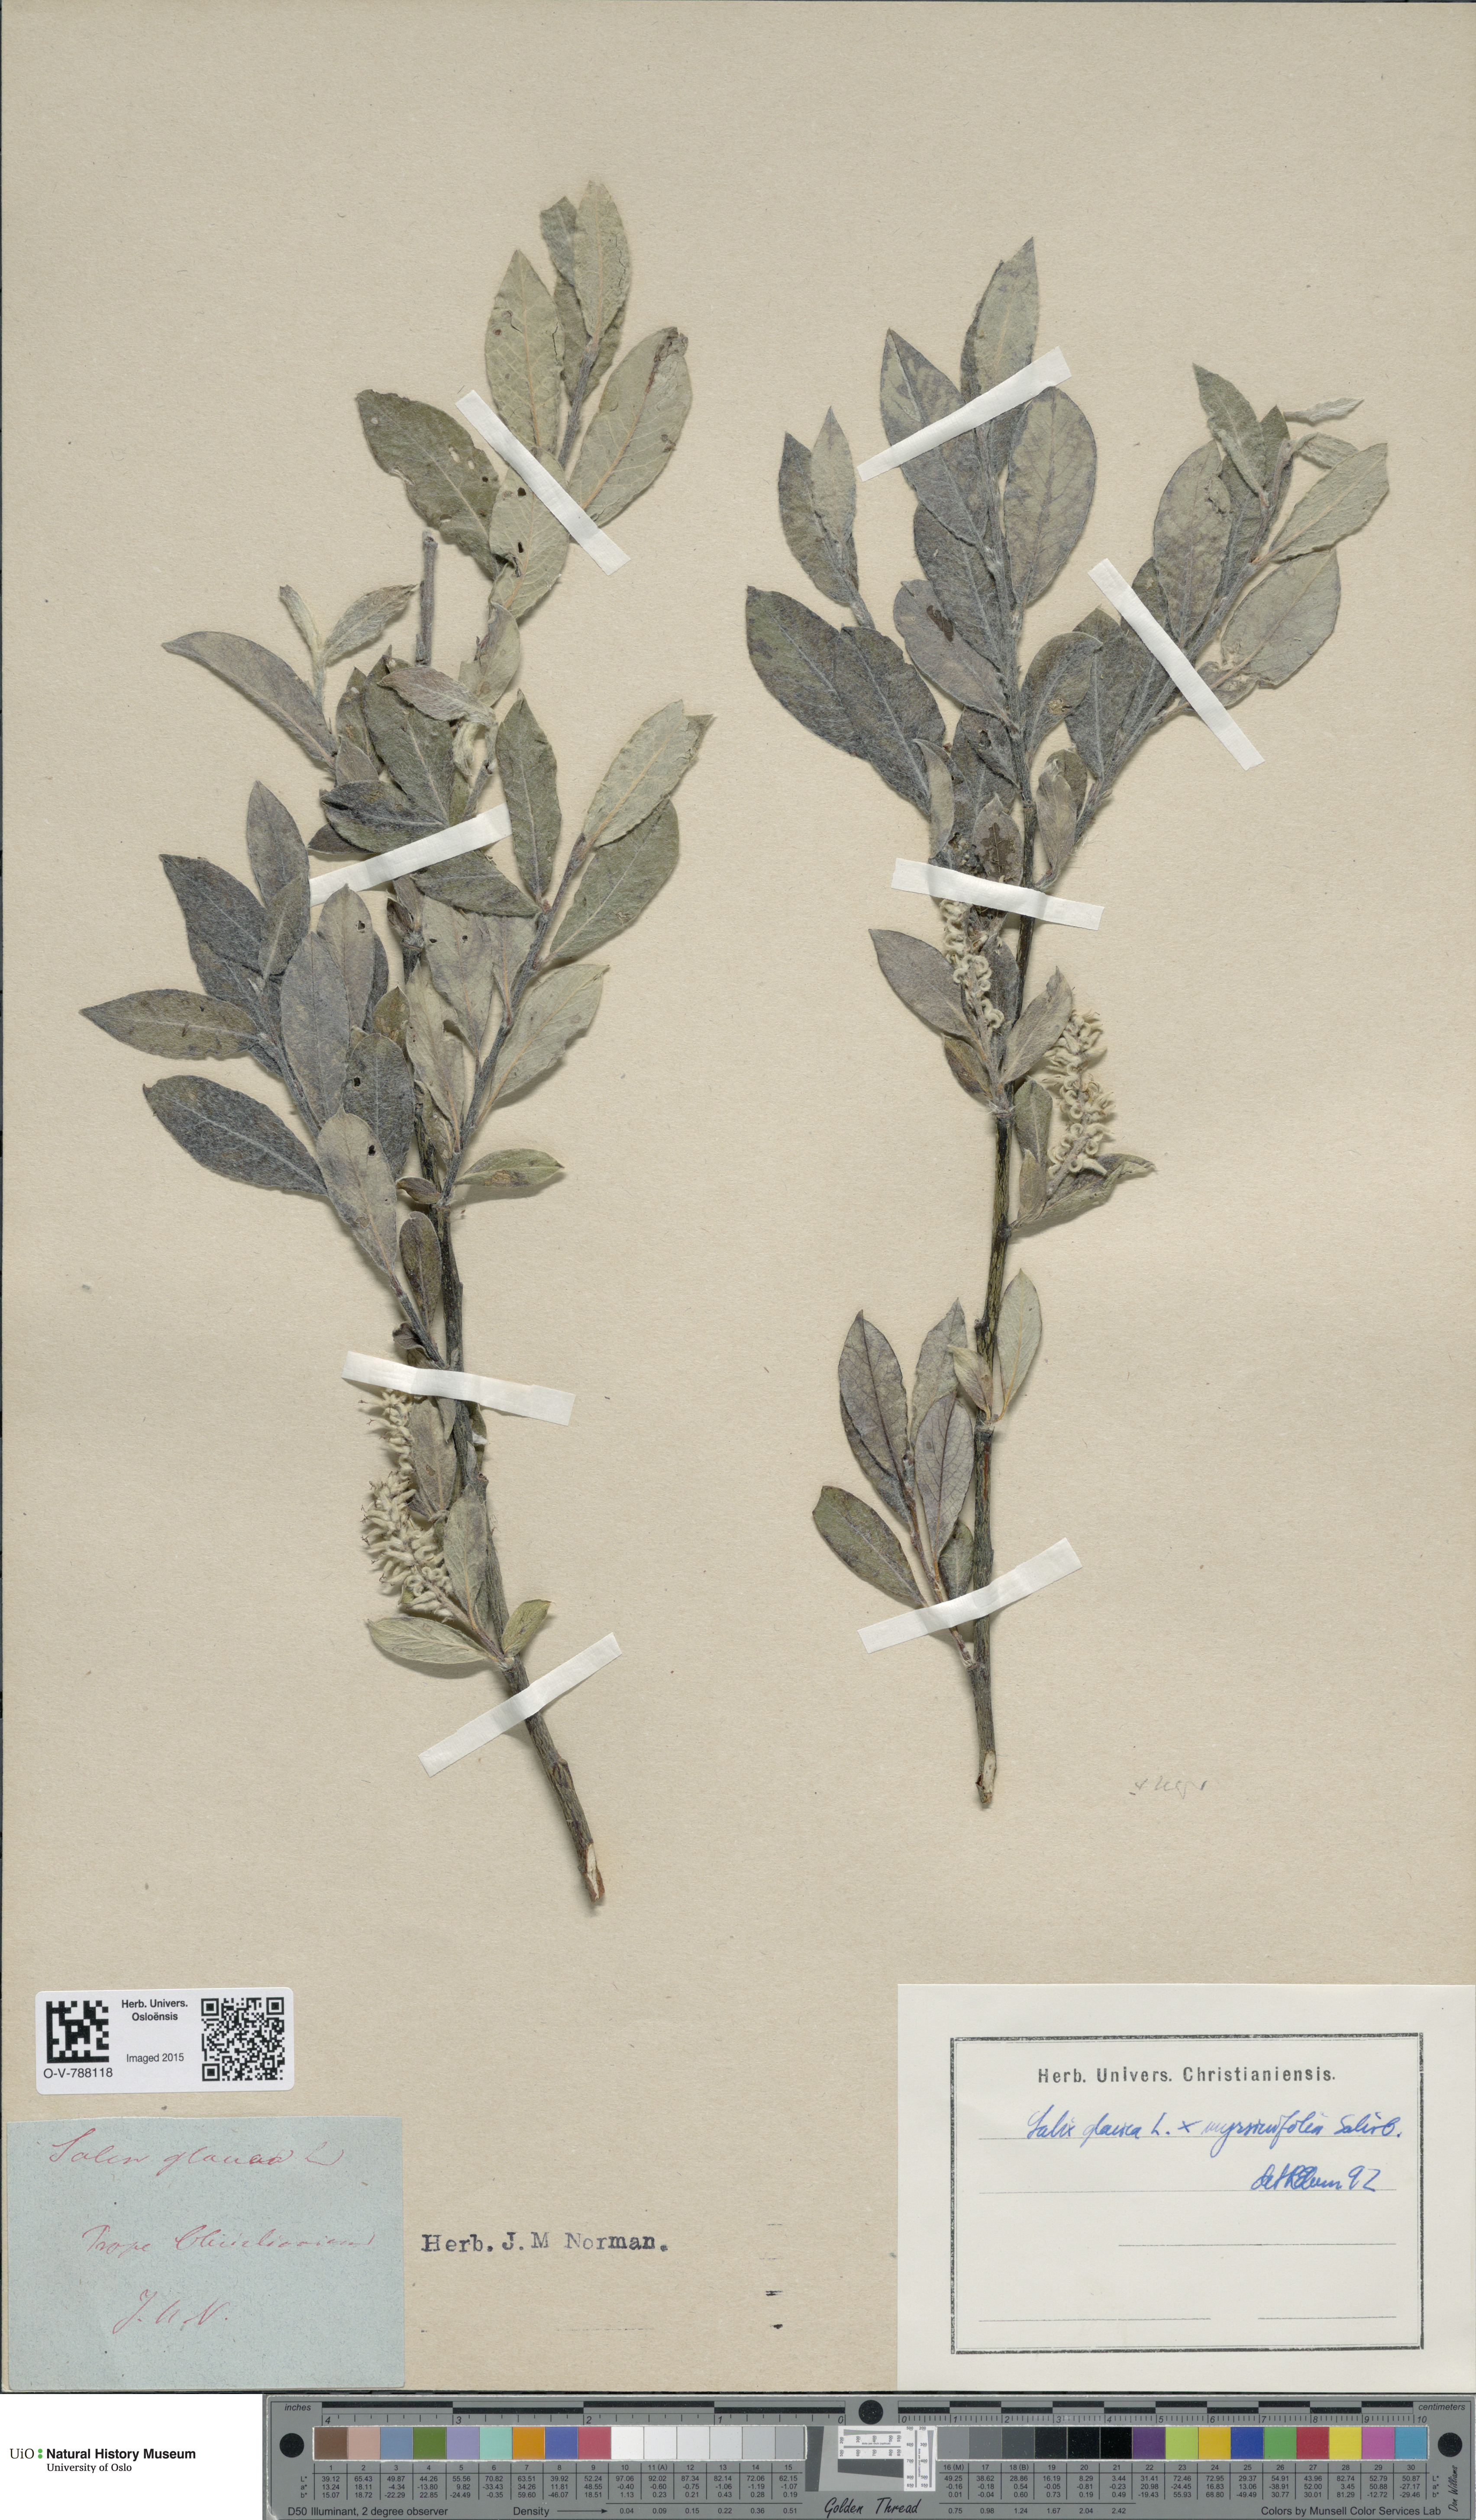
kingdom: Plantae
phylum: Tracheophyta
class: Magnoliopsida
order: Malpighiales
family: Salicaceae
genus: Salix
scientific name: Salix
